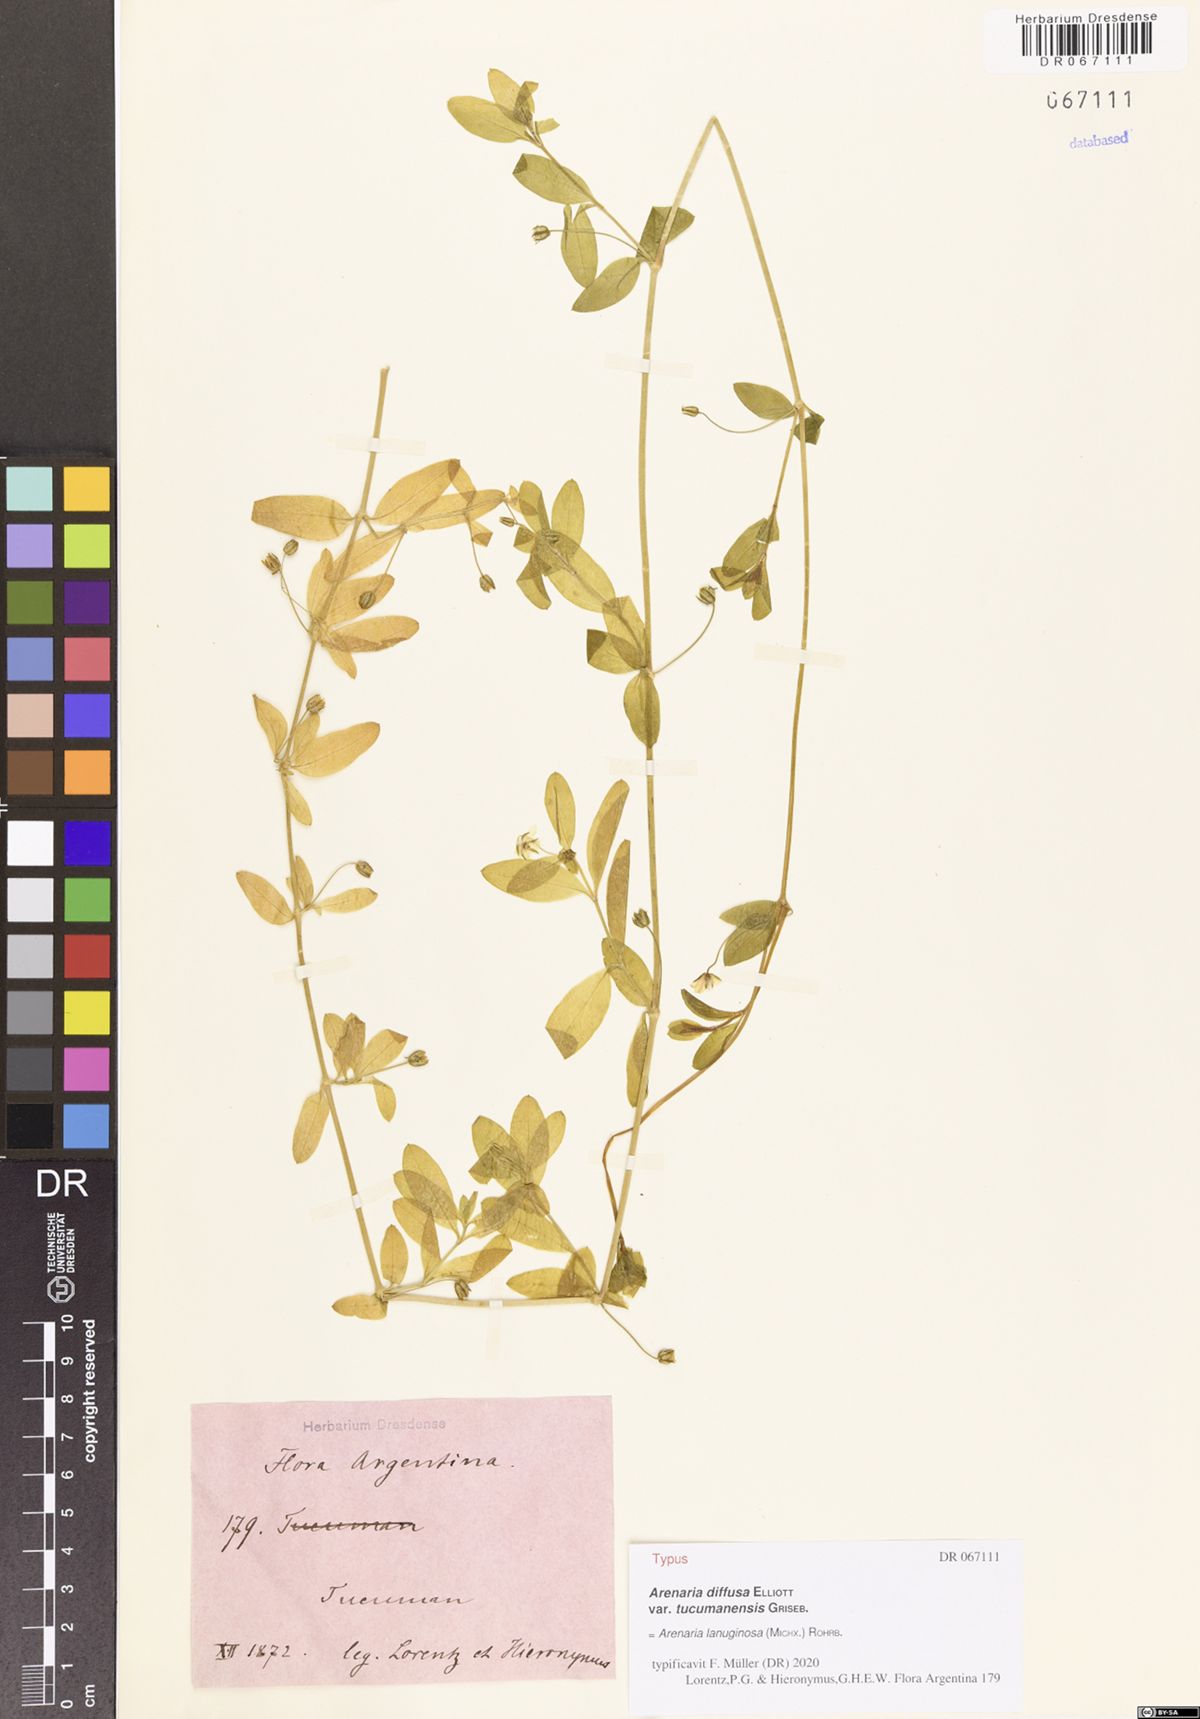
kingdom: Plantae
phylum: Tracheophyta
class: Magnoliopsida
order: Caryophyllales
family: Caryophyllaceae
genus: Arenaria
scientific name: Arenaria lanuginosa
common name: Spread sandwort
